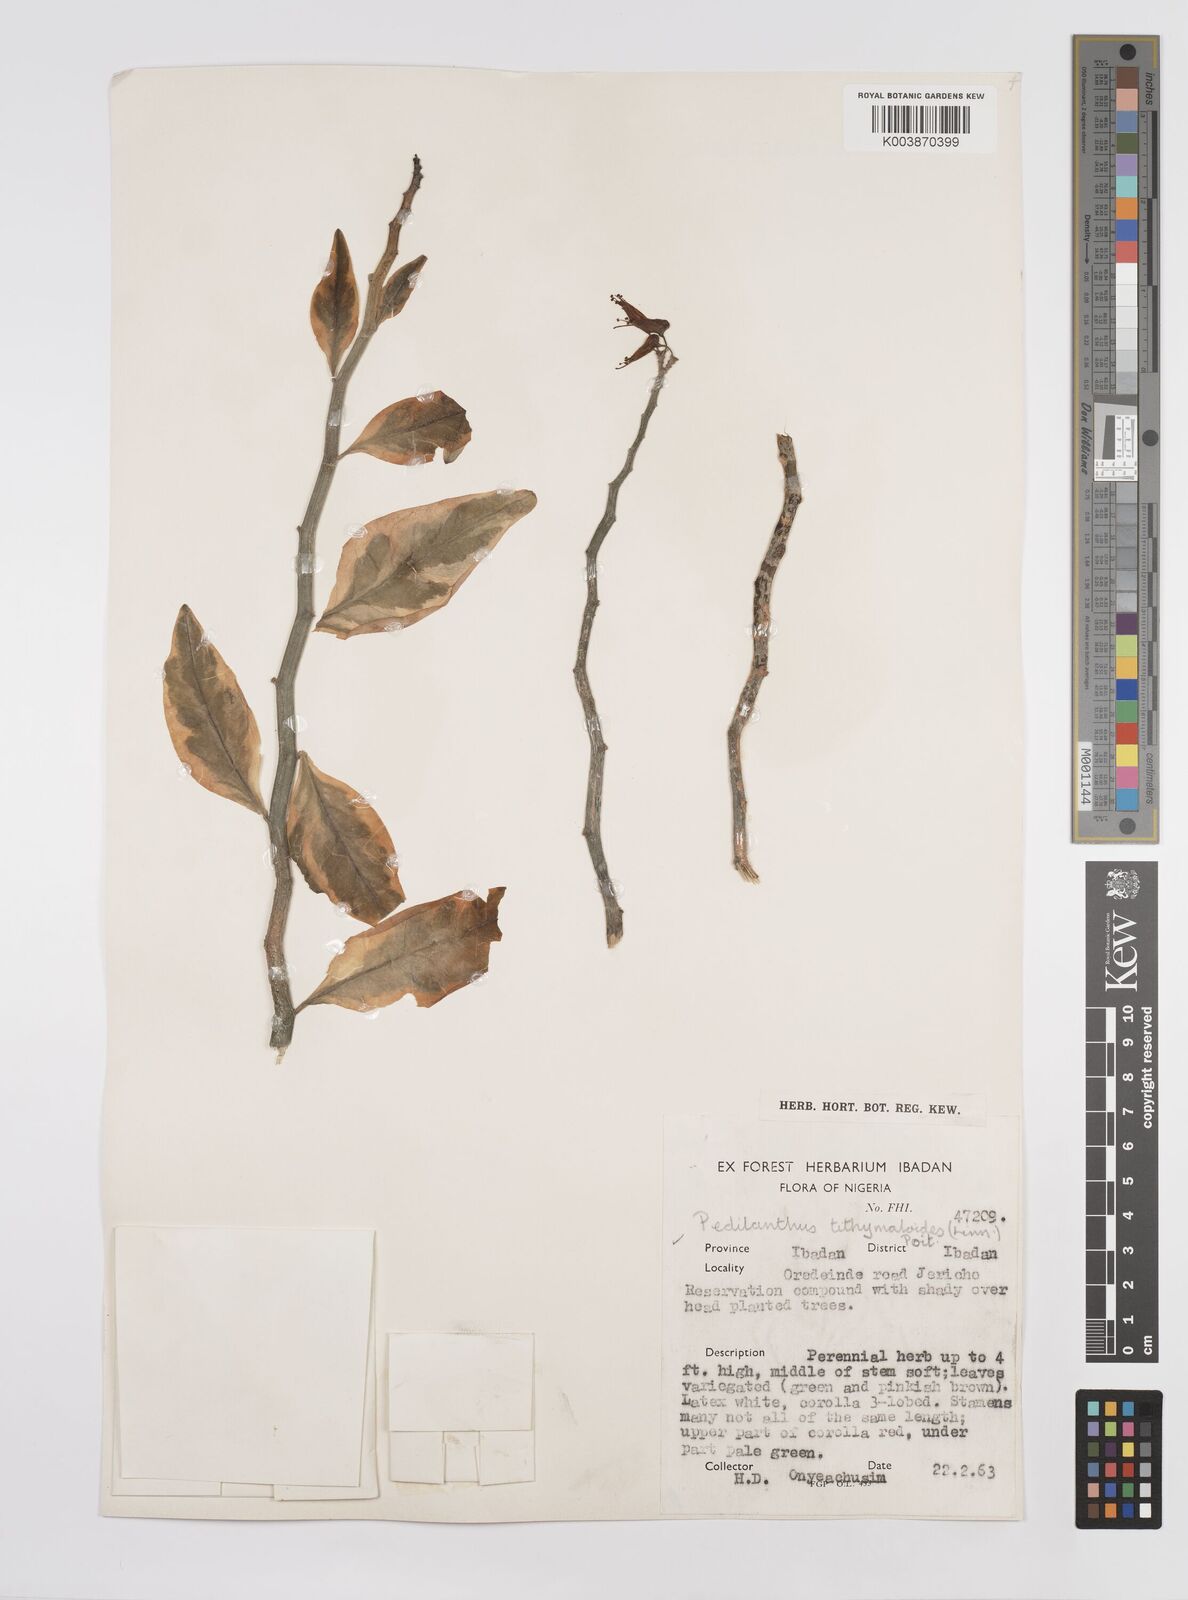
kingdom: Plantae
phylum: Tracheophyta
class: Magnoliopsida
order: Malpighiales
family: Euphorbiaceae
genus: Euphorbia
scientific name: Euphorbia tithymaloides
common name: Slipperplant
